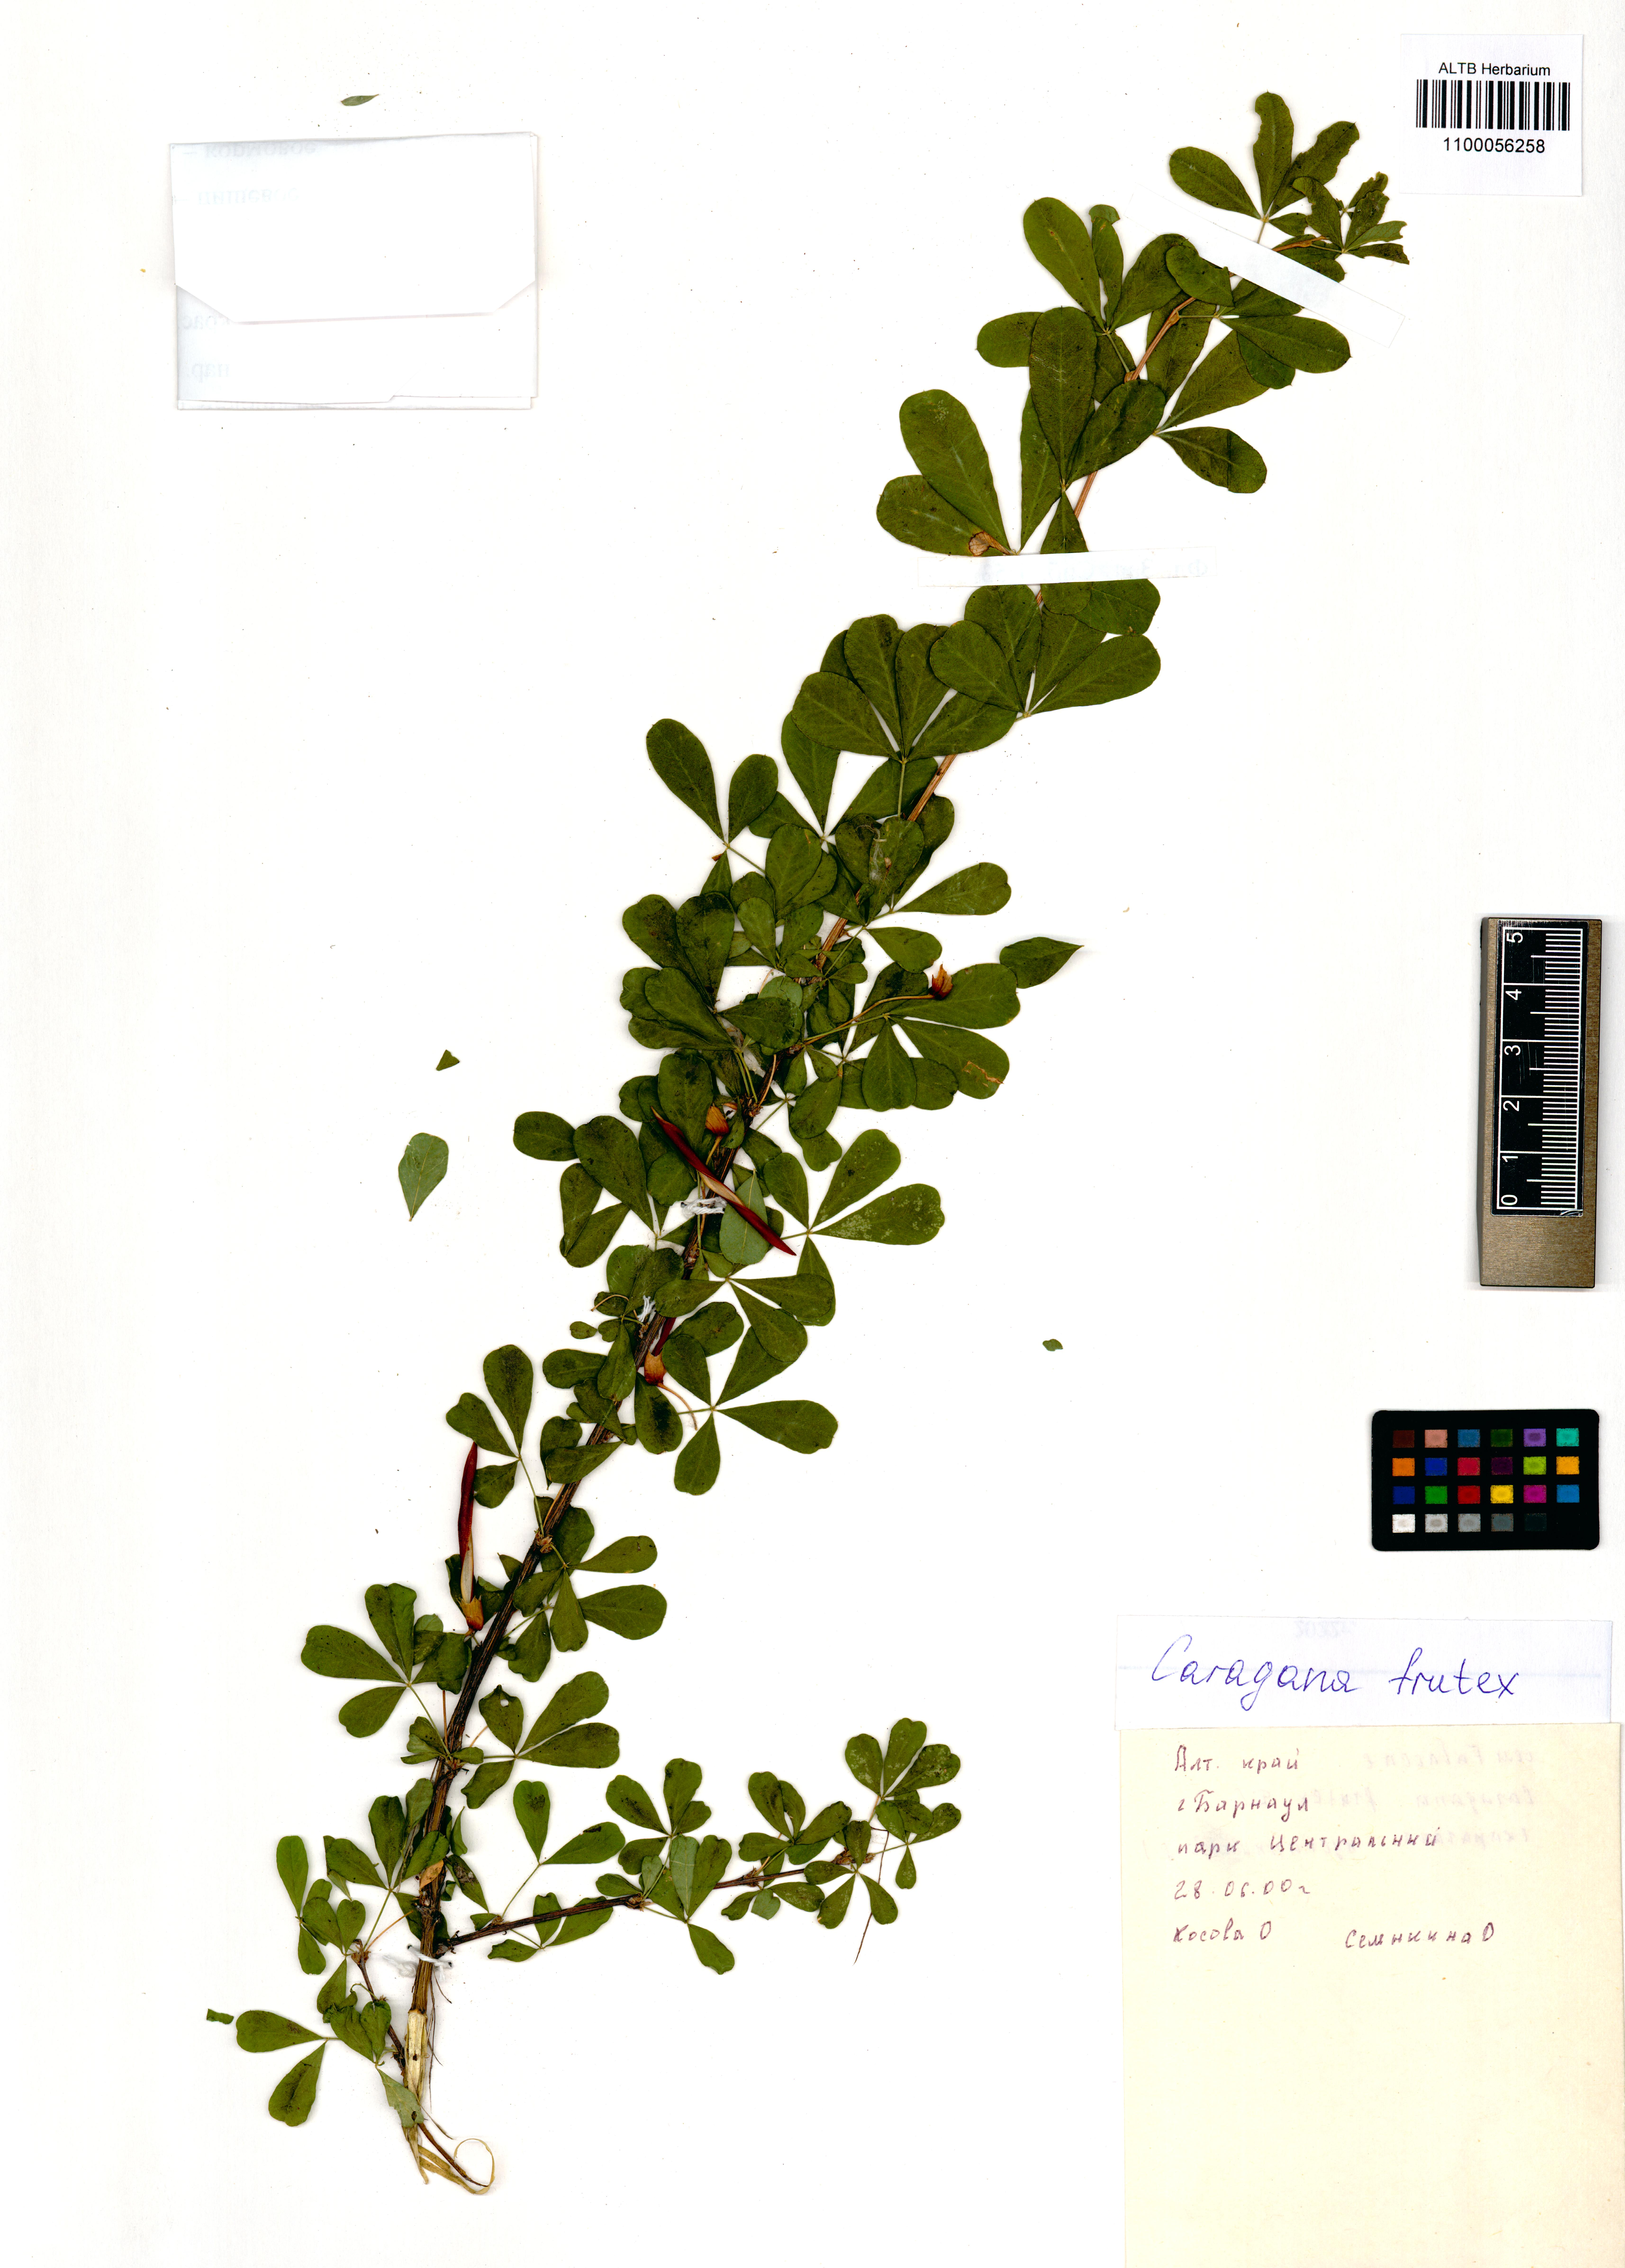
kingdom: Plantae
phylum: Tracheophyta
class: Magnoliopsida
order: Fabales
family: Fabaceae
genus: Caragana
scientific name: Caragana frutex
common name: Russian peashrub
